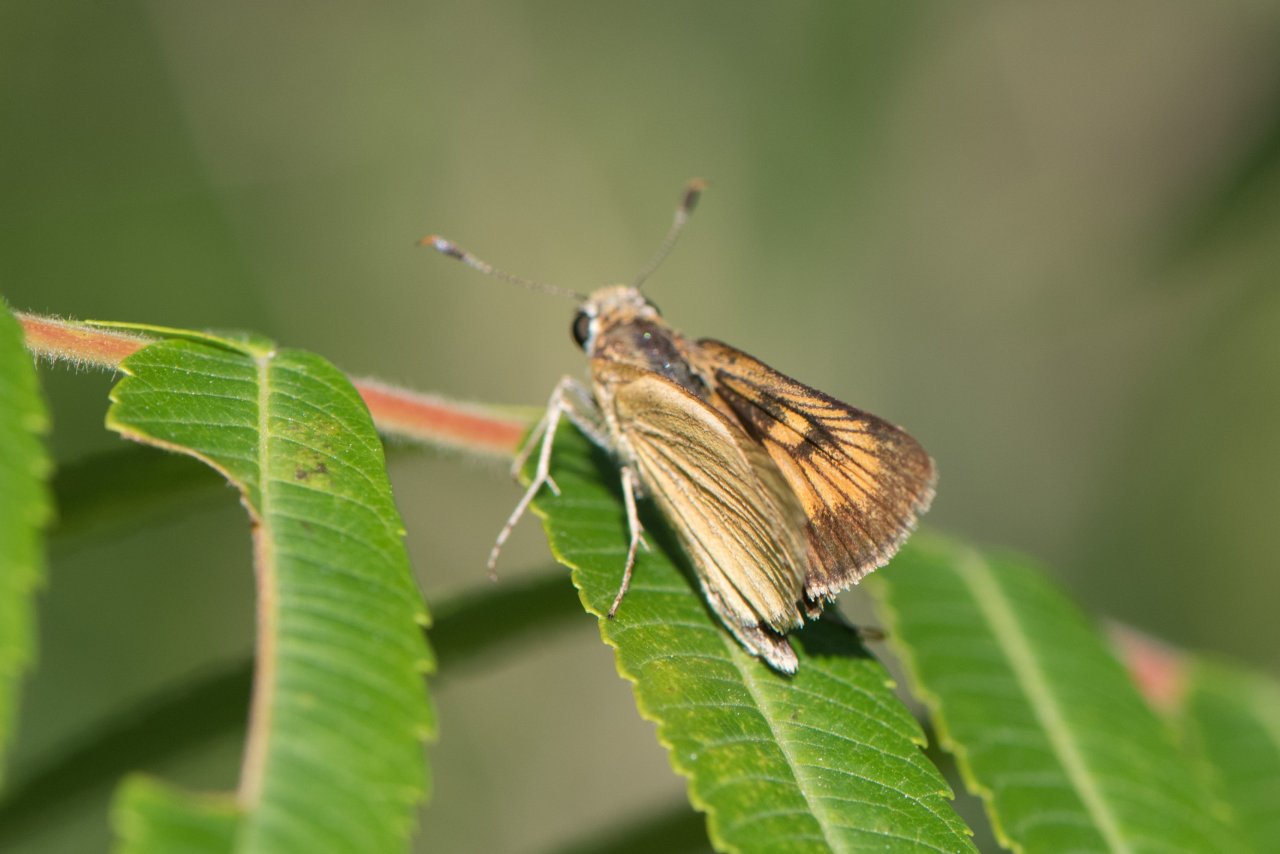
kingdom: Animalia
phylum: Arthropoda
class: Insecta
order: Lepidoptera
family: Hesperiidae
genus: Atrytone
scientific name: Atrytone delaware
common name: Delaware Skipper
